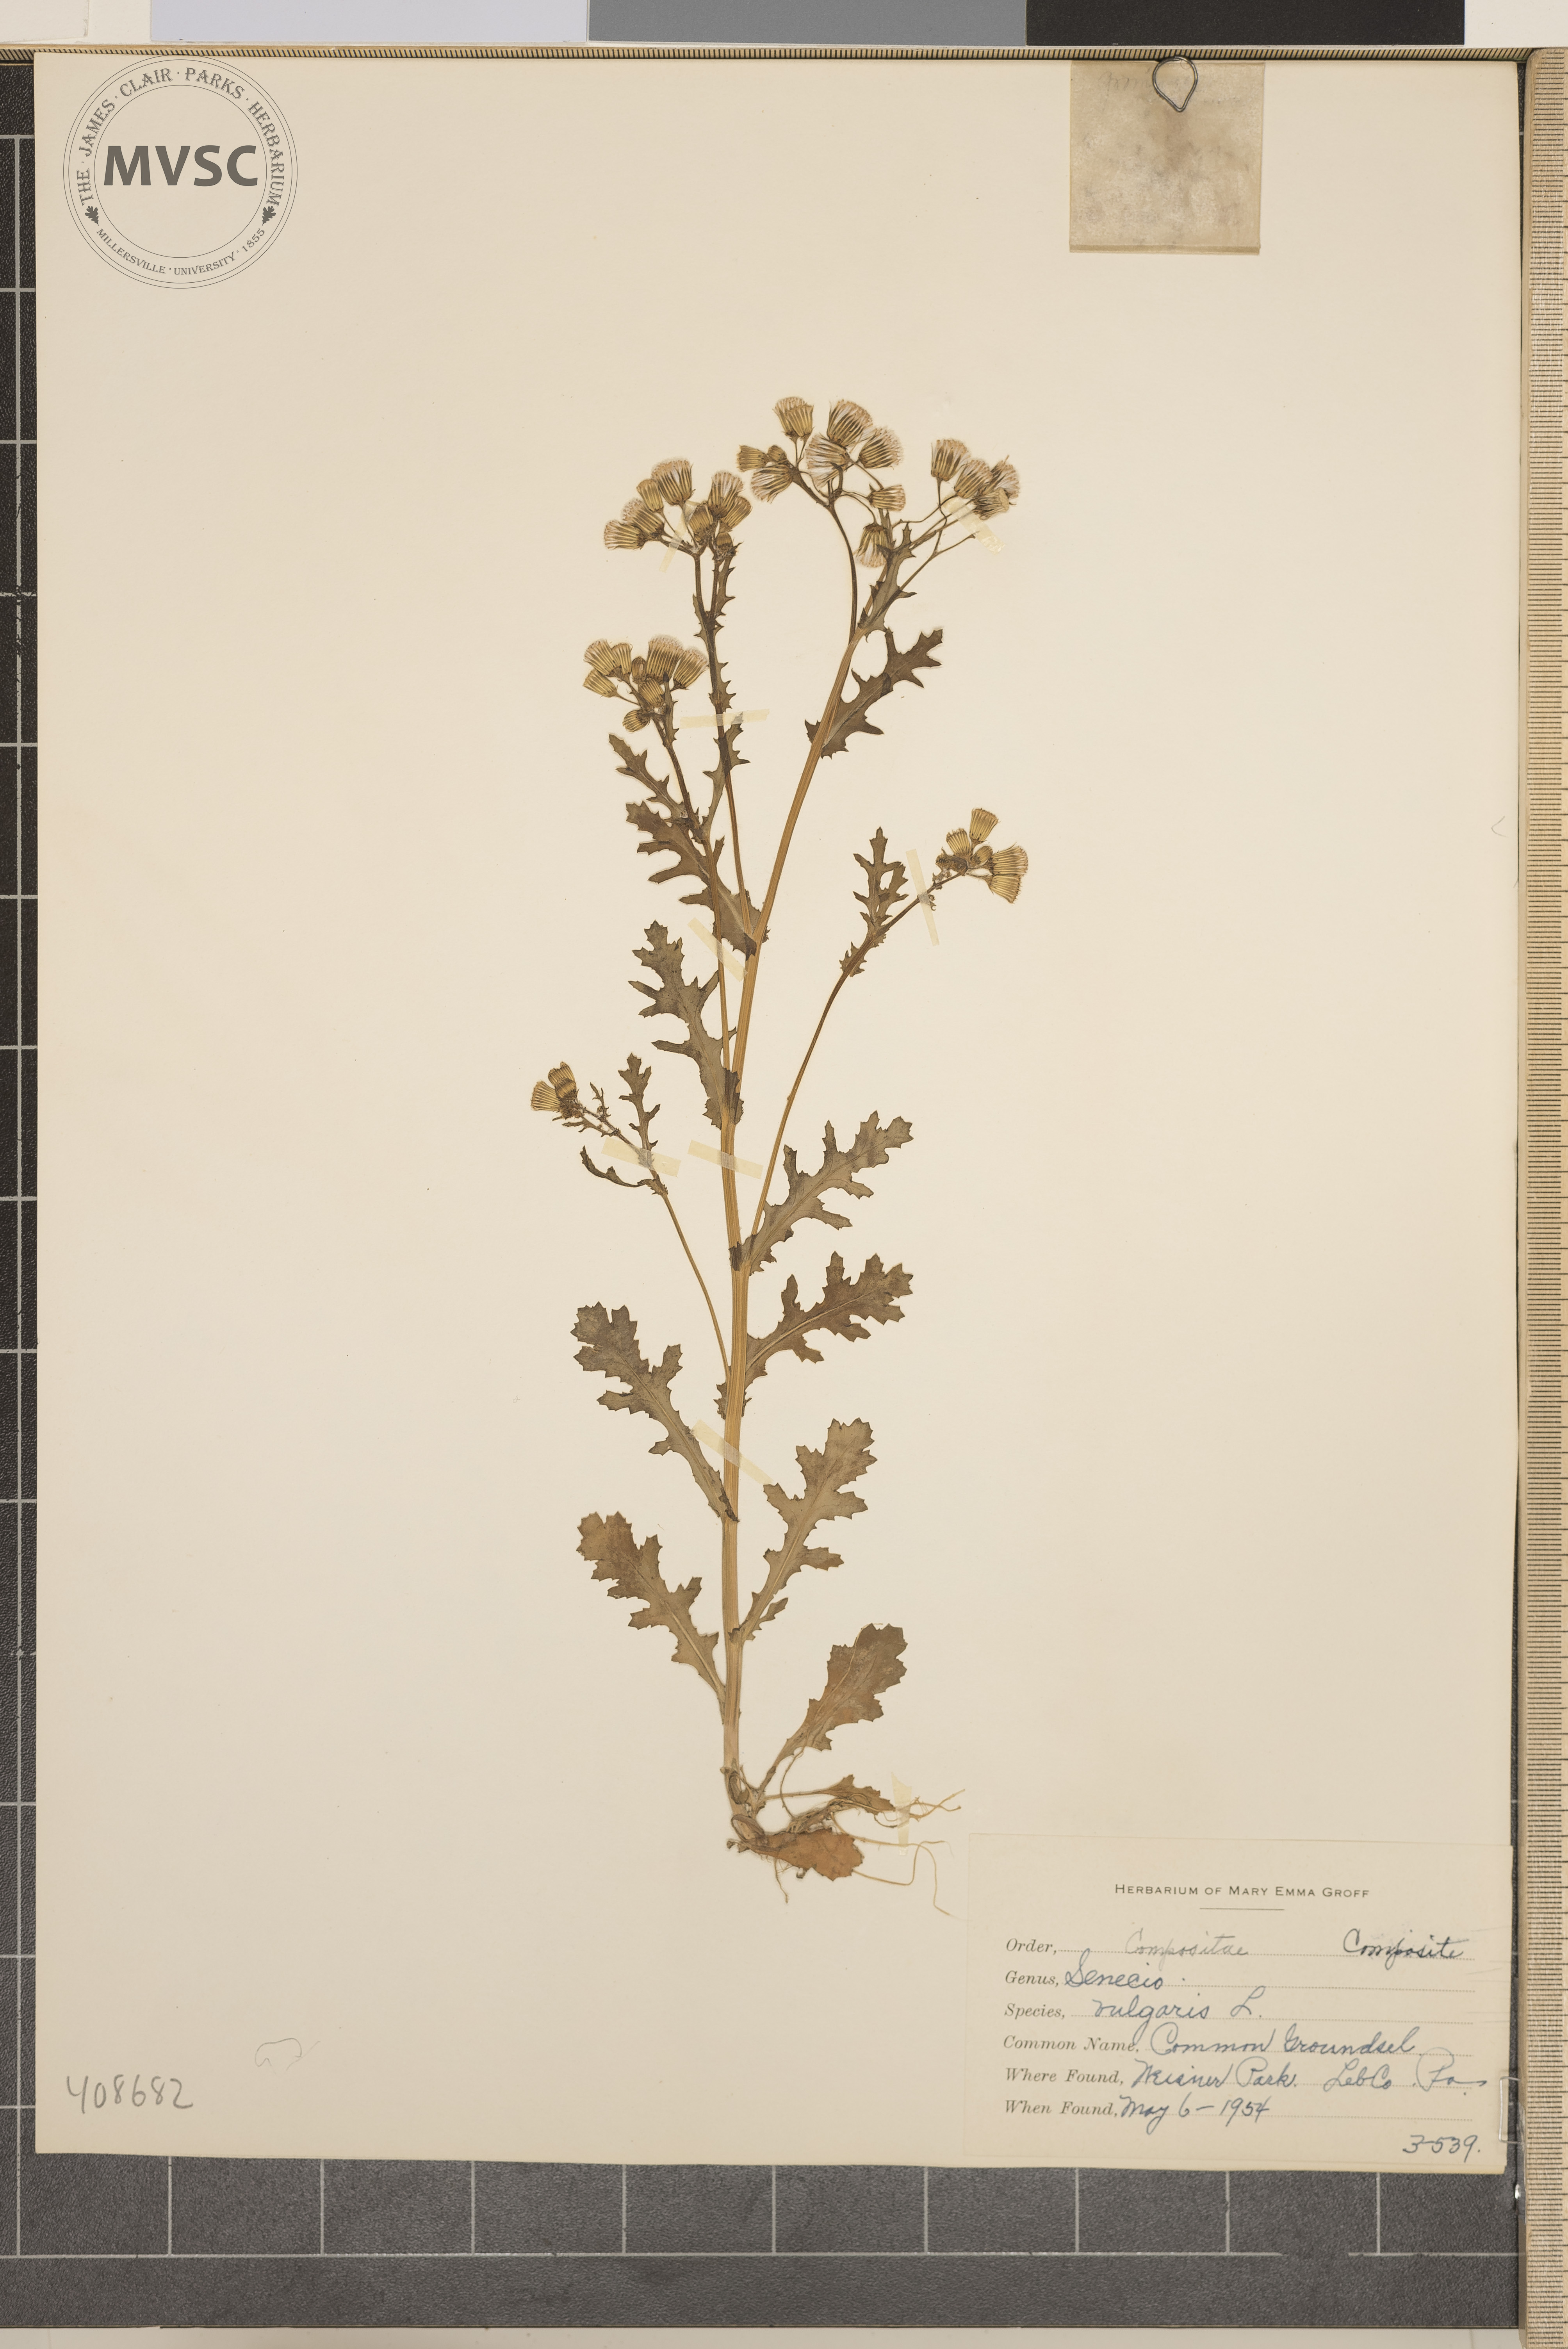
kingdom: Plantae
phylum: Tracheophyta
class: Magnoliopsida
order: Asterales
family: Asteraceae
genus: Senecio
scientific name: Senecio vulgaris
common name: Common Groundsel
